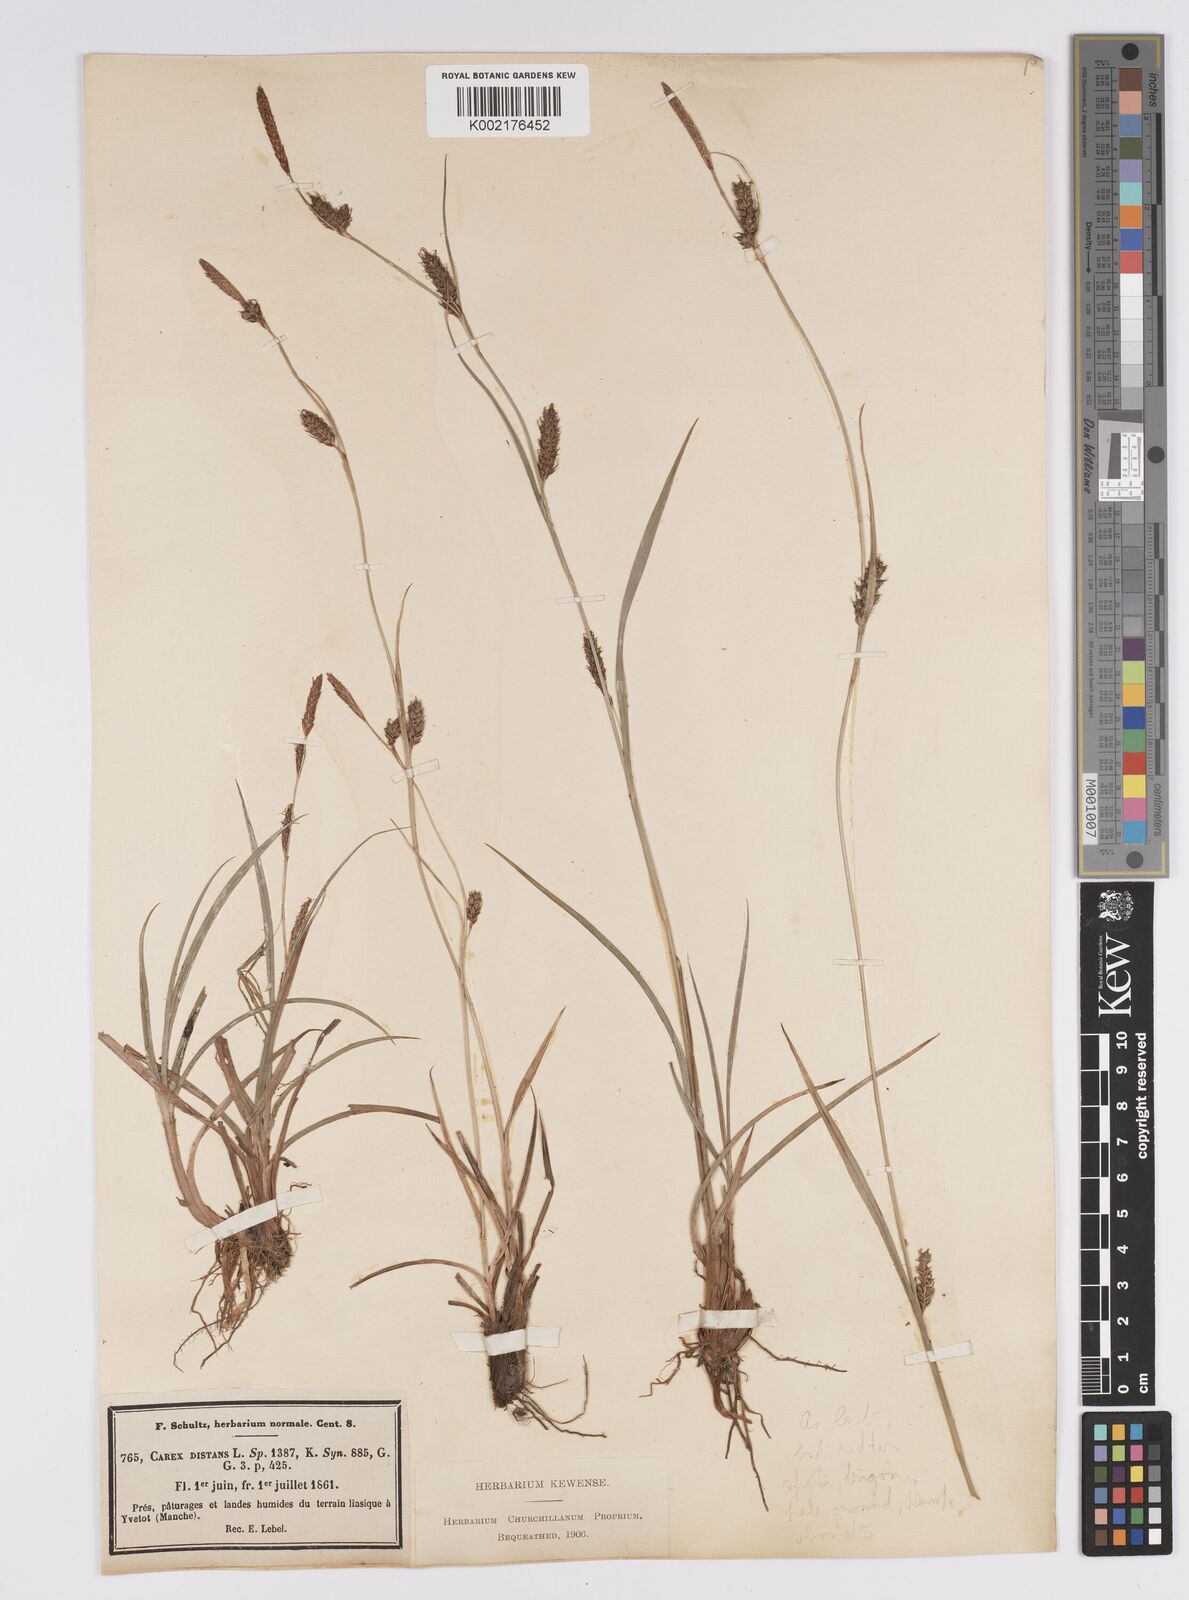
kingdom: Plantae
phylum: Tracheophyta
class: Liliopsida
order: Poales
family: Cyperaceae
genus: Carex
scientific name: Carex distans
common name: Distant sedge
